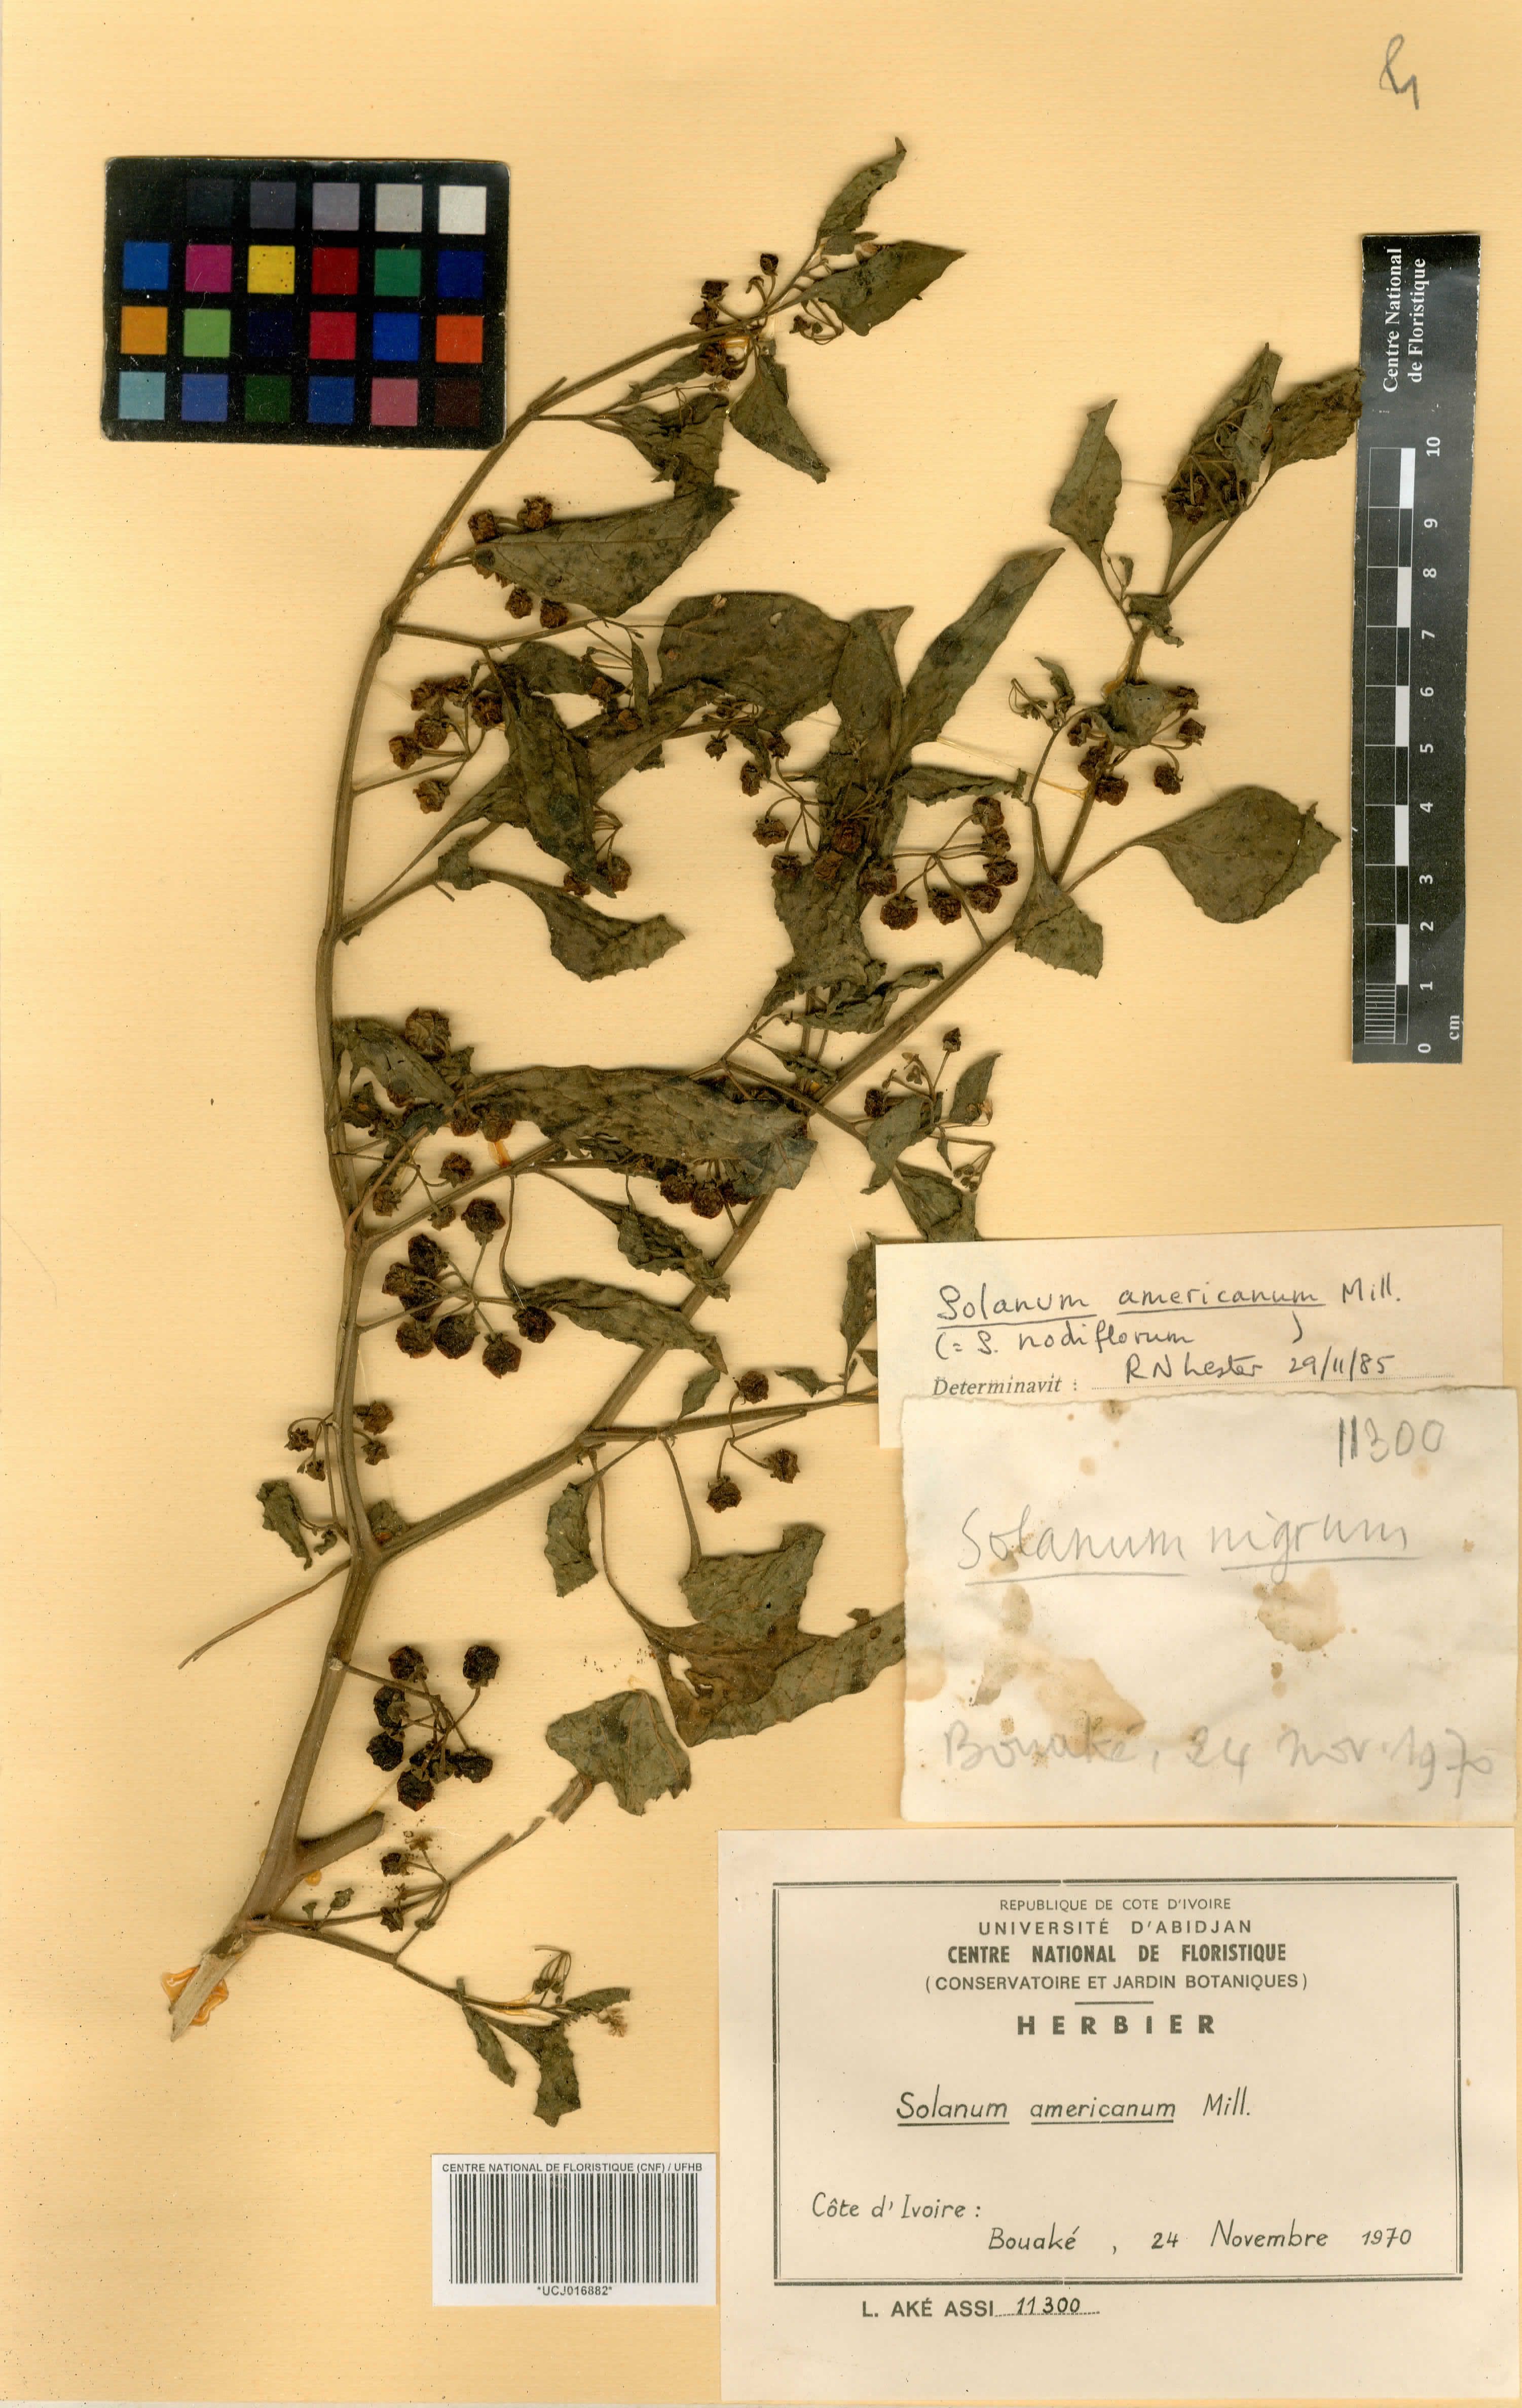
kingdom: Plantae
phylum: Tracheophyta
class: Magnoliopsida
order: Solanales
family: Solanaceae
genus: Solanum
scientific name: Solanum americanum
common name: American black nightshade
